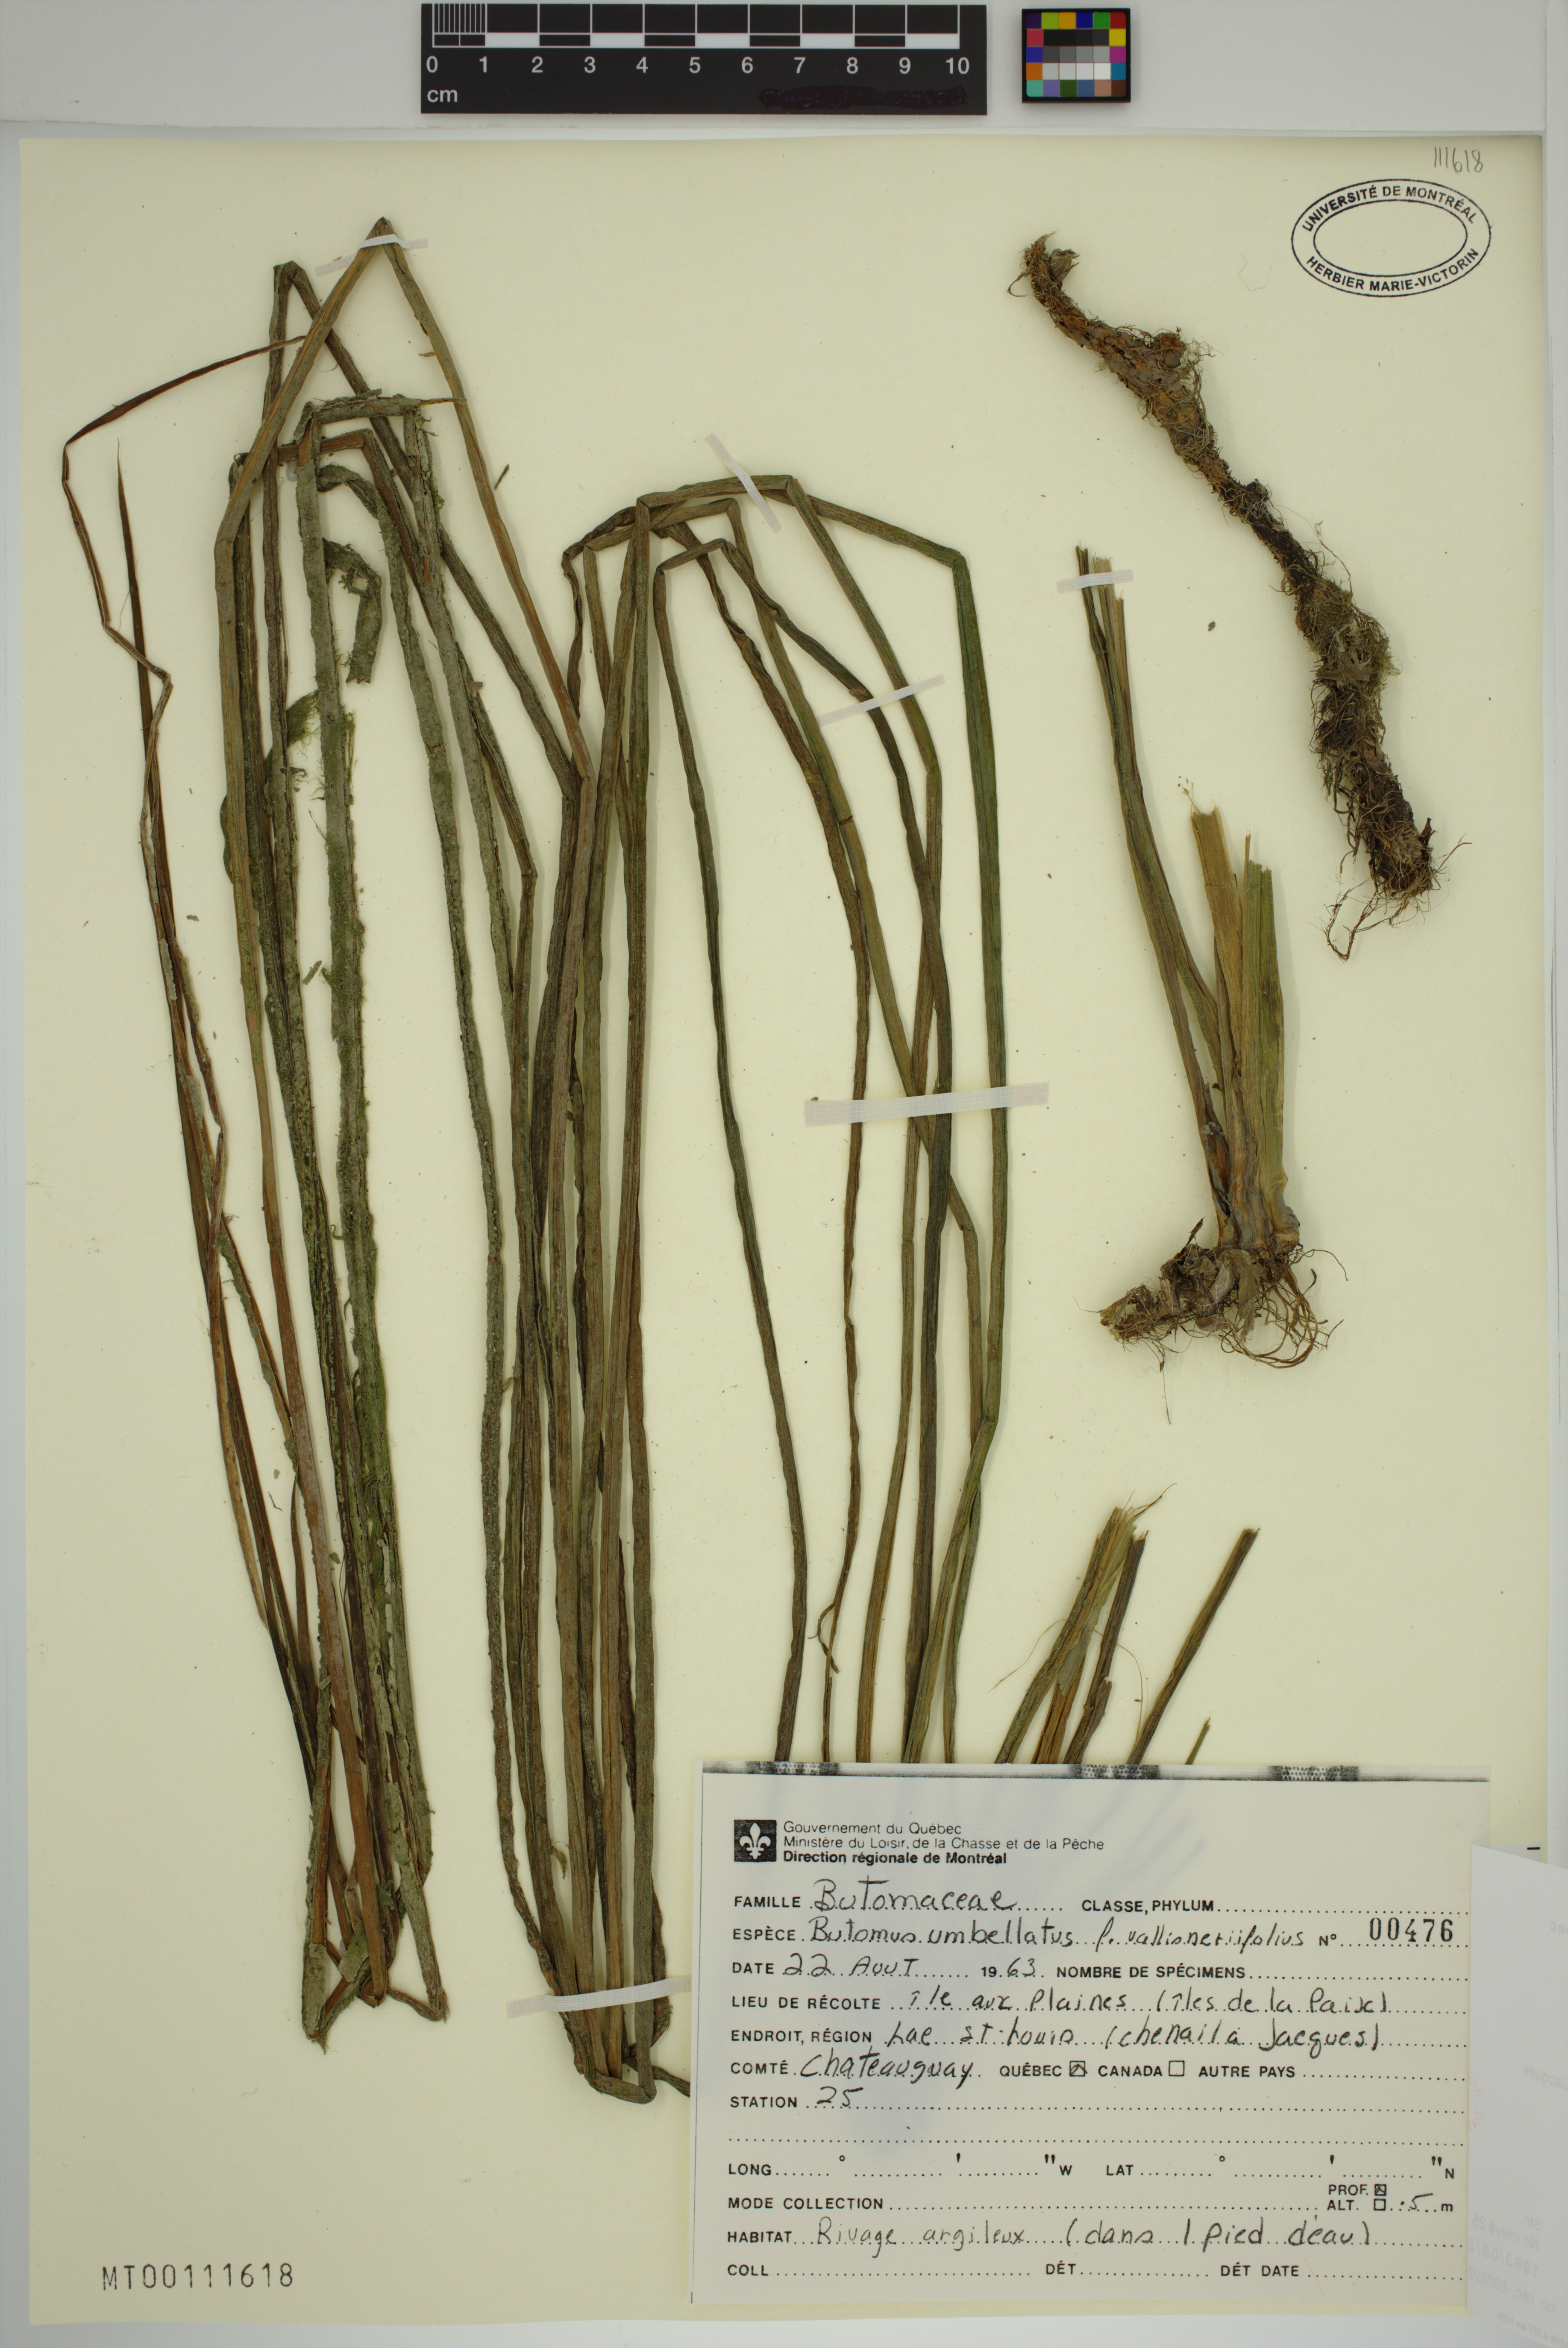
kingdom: Plantae
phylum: Tracheophyta
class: Liliopsida
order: Alismatales
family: Butomaceae
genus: Butomus
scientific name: Butomus umbellatus
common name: Flowering-rush
